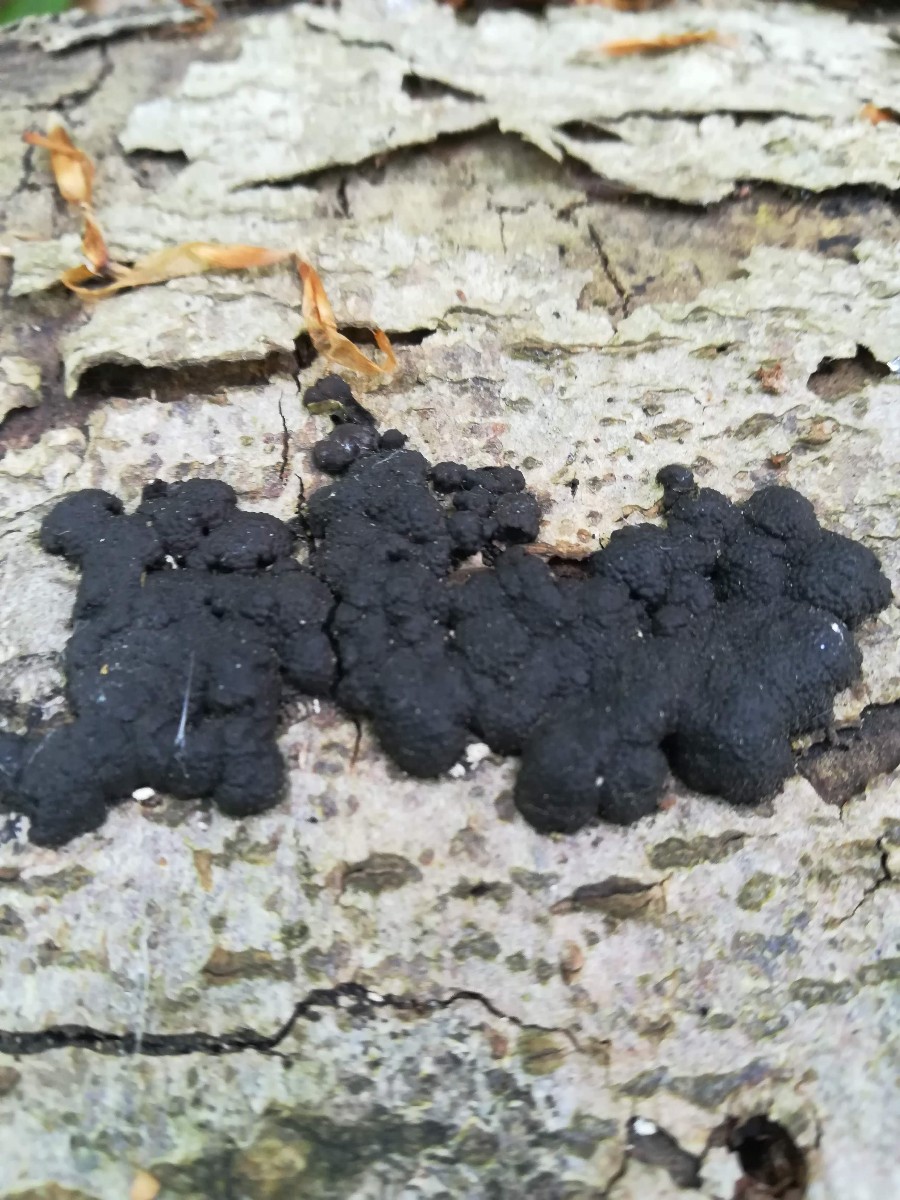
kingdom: Fungi
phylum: Ascomycota
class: Sordariomycetes
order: Xylariales
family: Hypoxylaceae
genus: Jackrogersella
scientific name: Jackrogersella cohaerens
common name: sammenflydende kulbær
